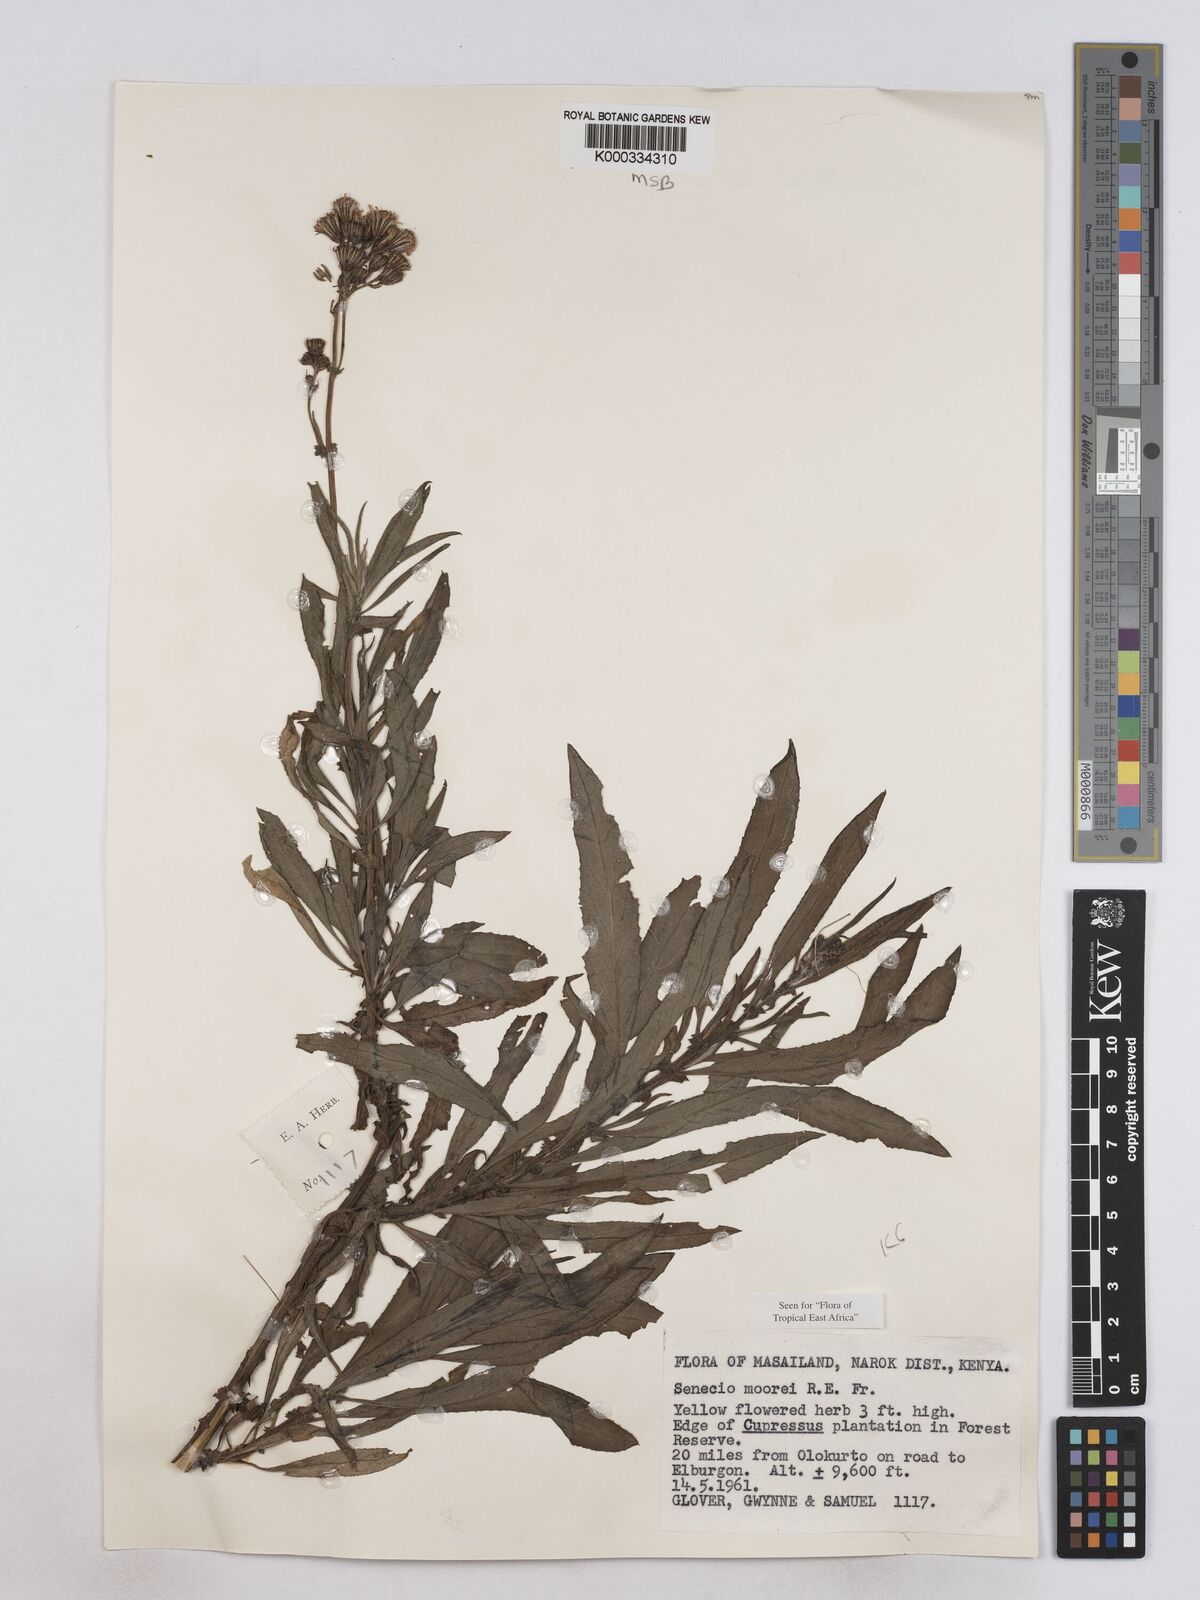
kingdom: Plantae
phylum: Tracheophyta
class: Magnoliopsida
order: Asterales
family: Asteraceae
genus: Senecio
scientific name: Senecio moorei
